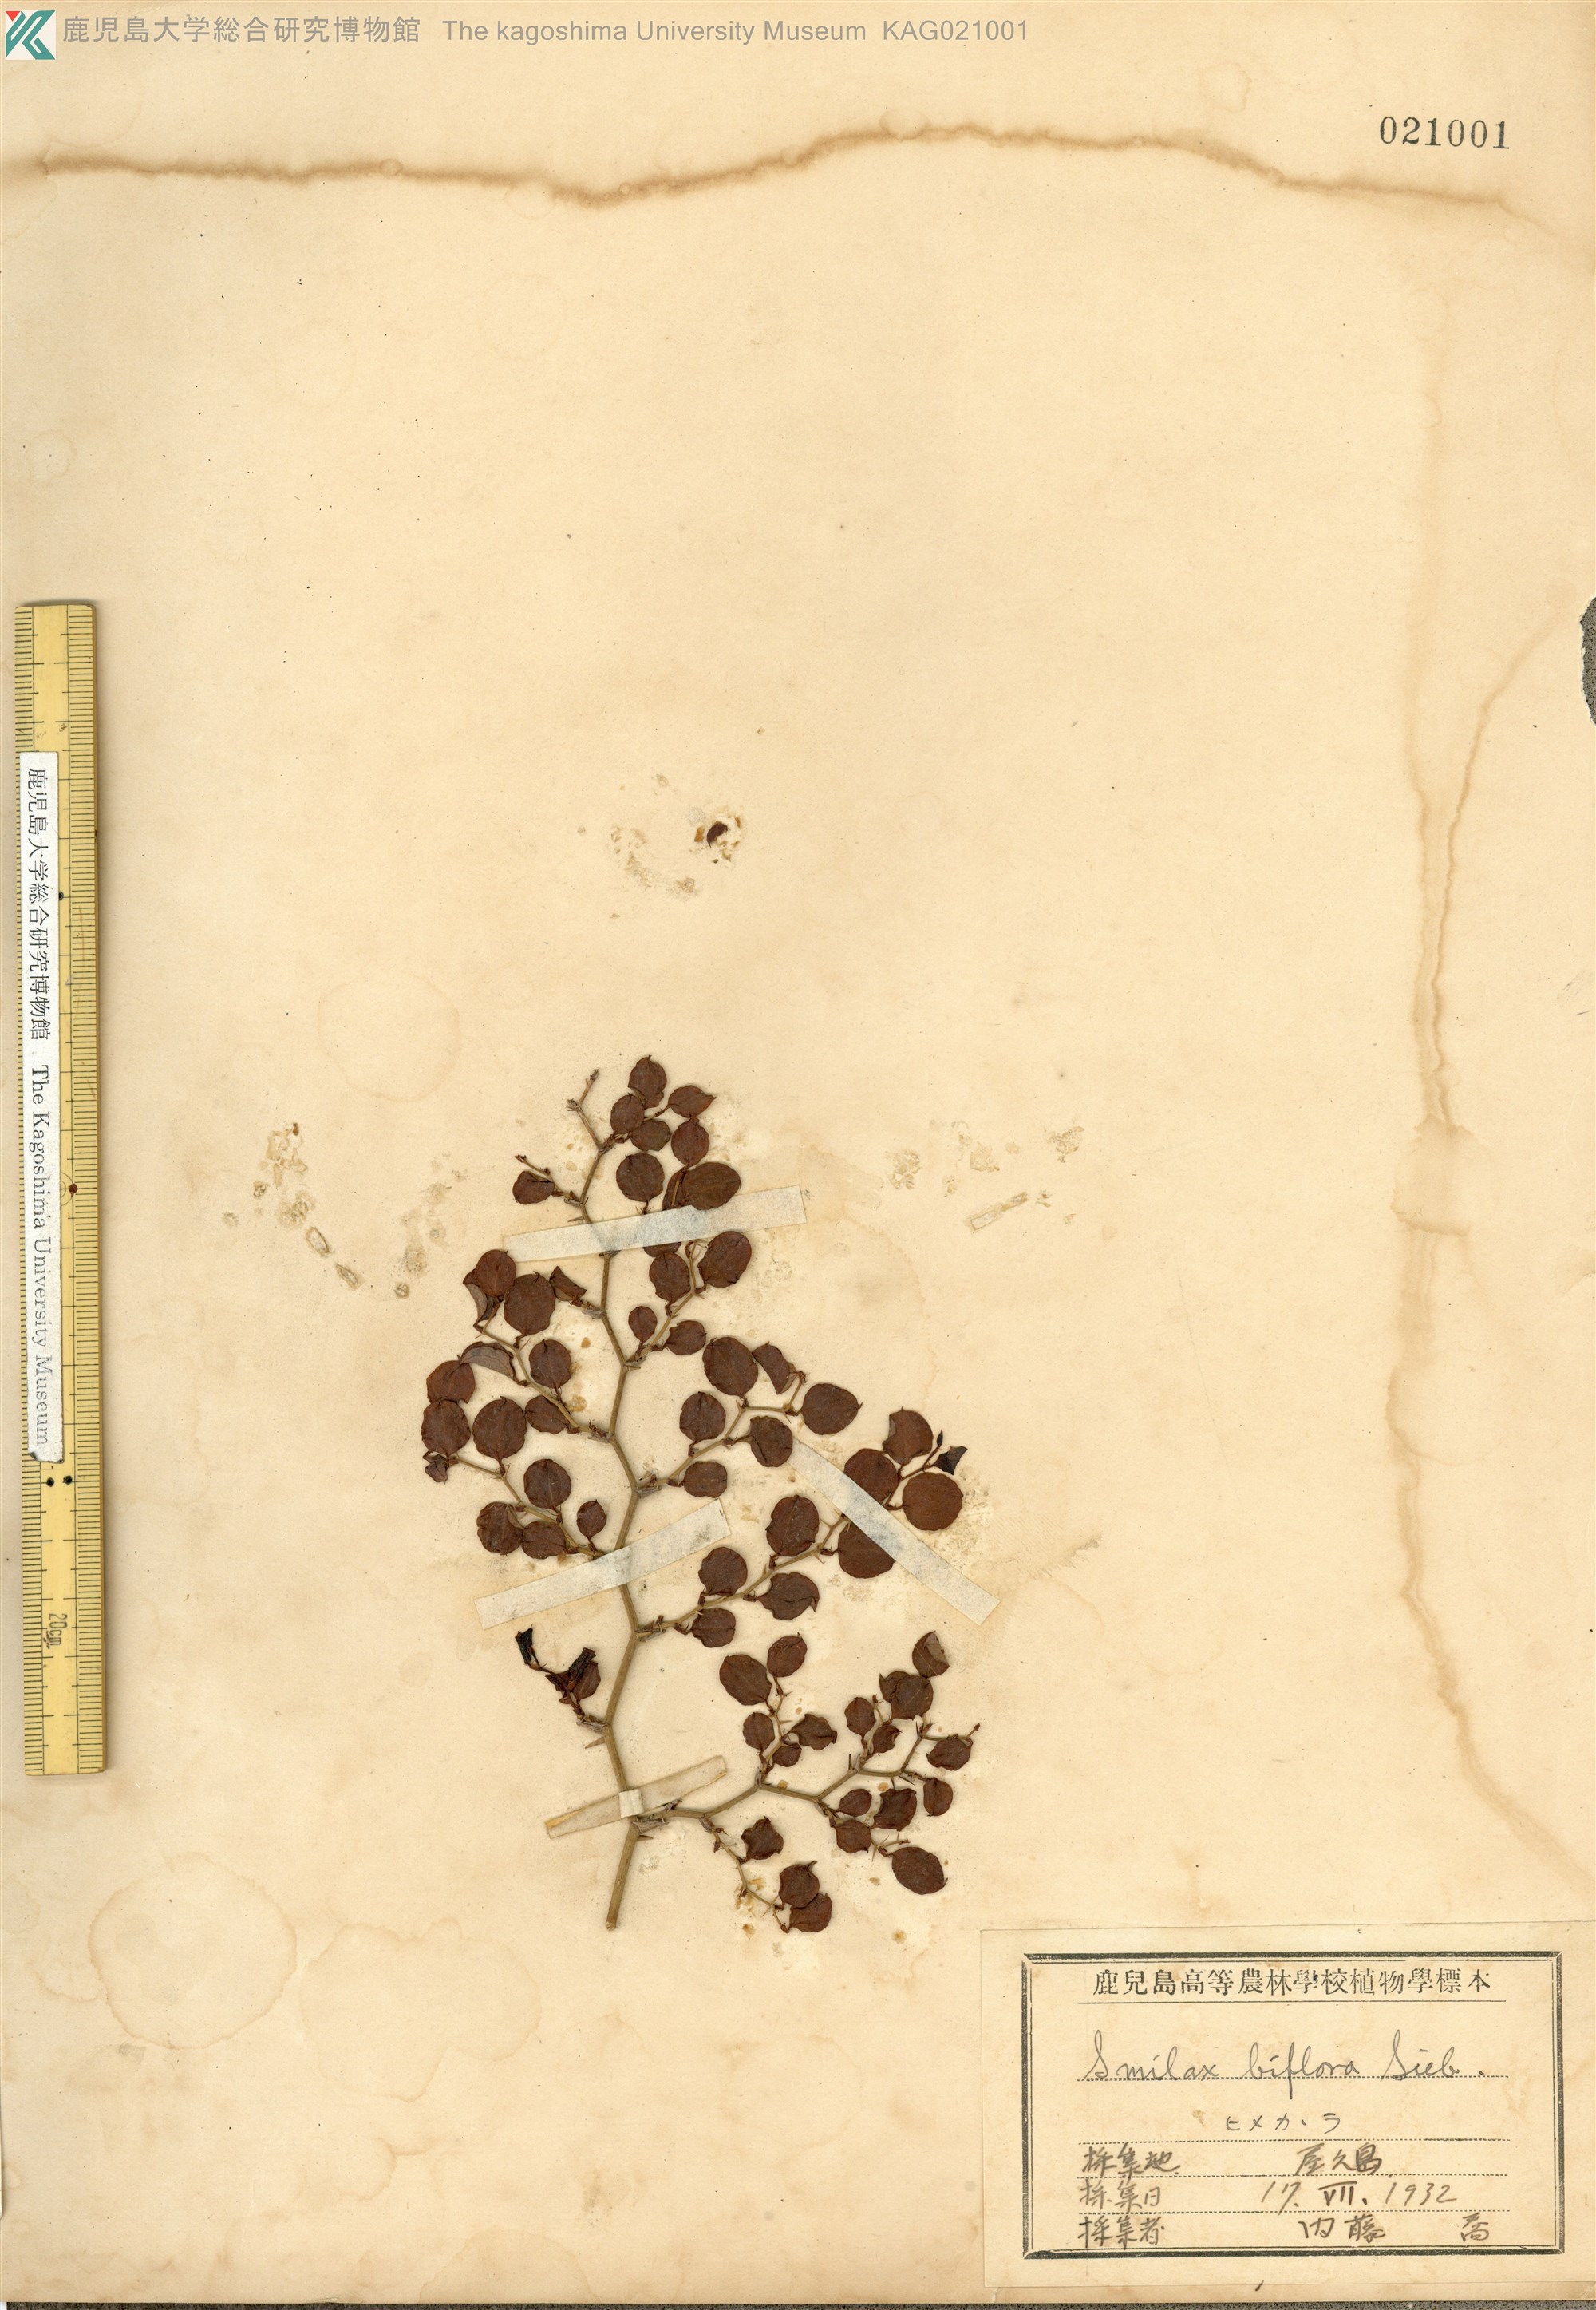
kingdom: Plantae
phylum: Tracheophyta
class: Liliopsida
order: Liliales
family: Smilacaceae
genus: Smilax
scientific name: Smilax biflora
